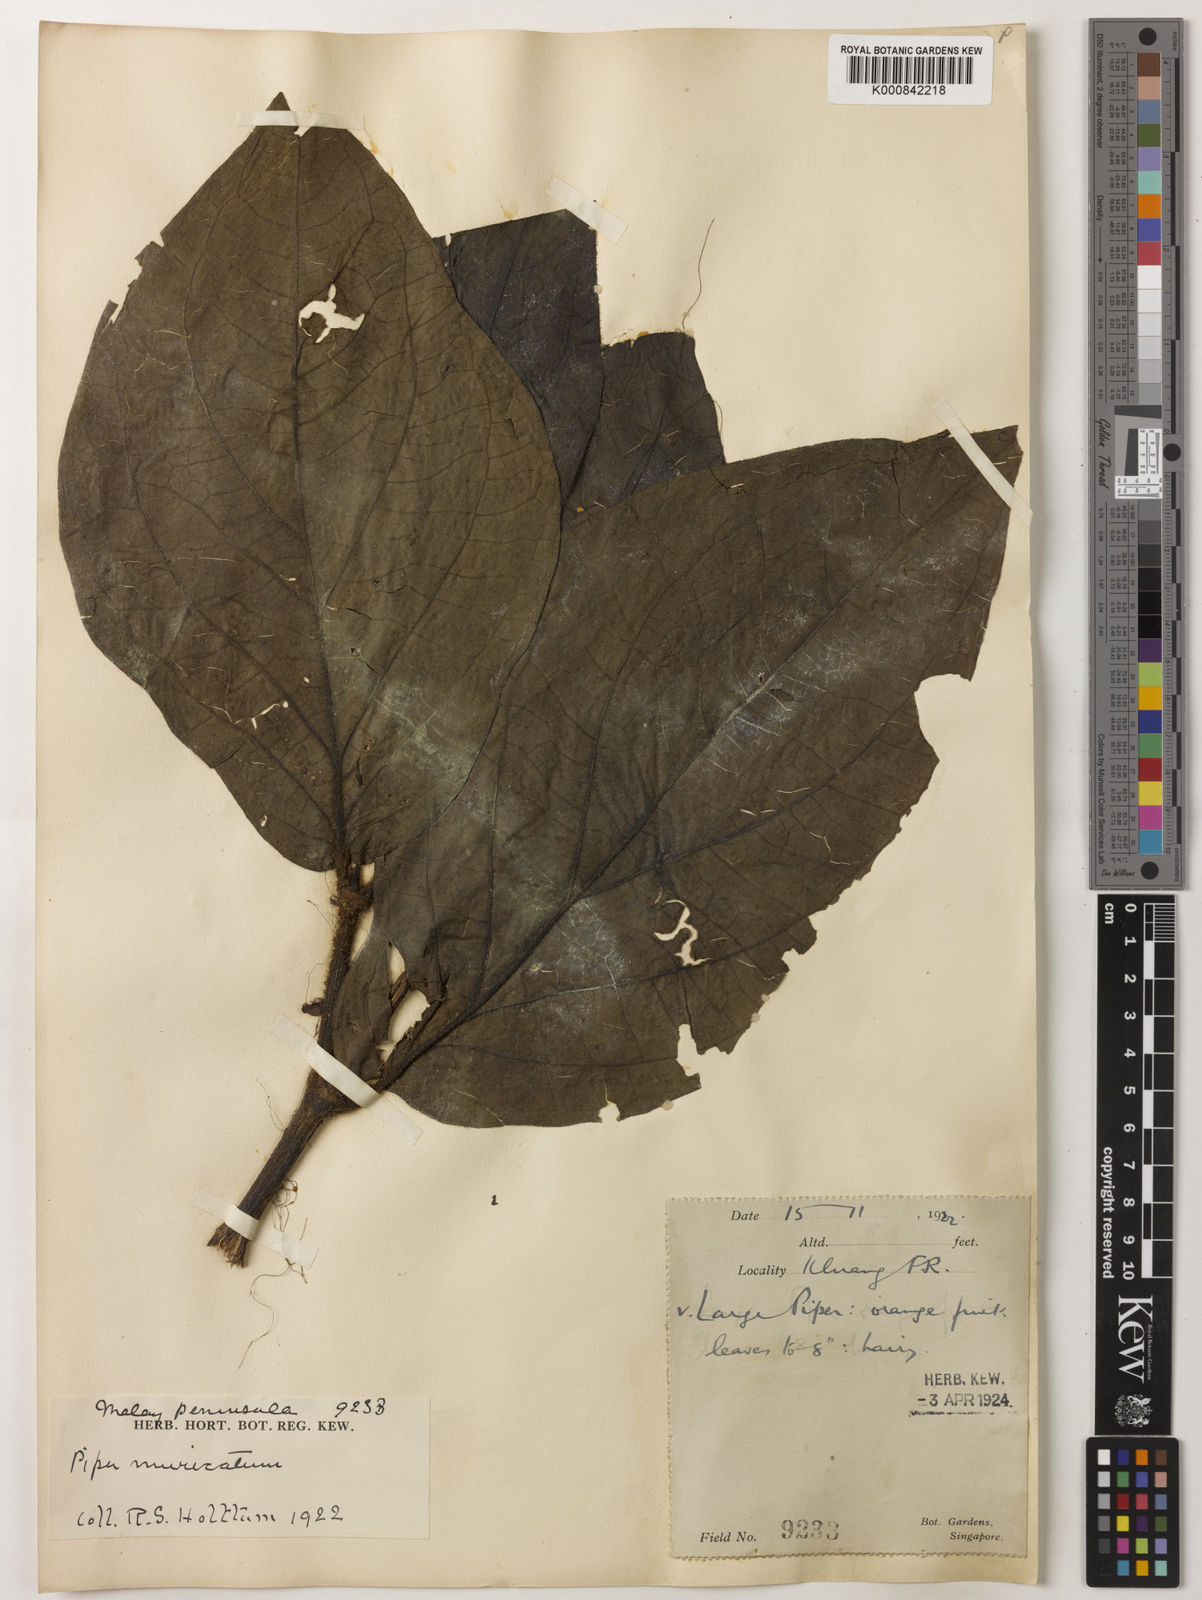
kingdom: Plantae
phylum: Tracheophyta
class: Magnoliopsida
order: Piperales
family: Piperaceae
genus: Piper
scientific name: Piper muricatum
